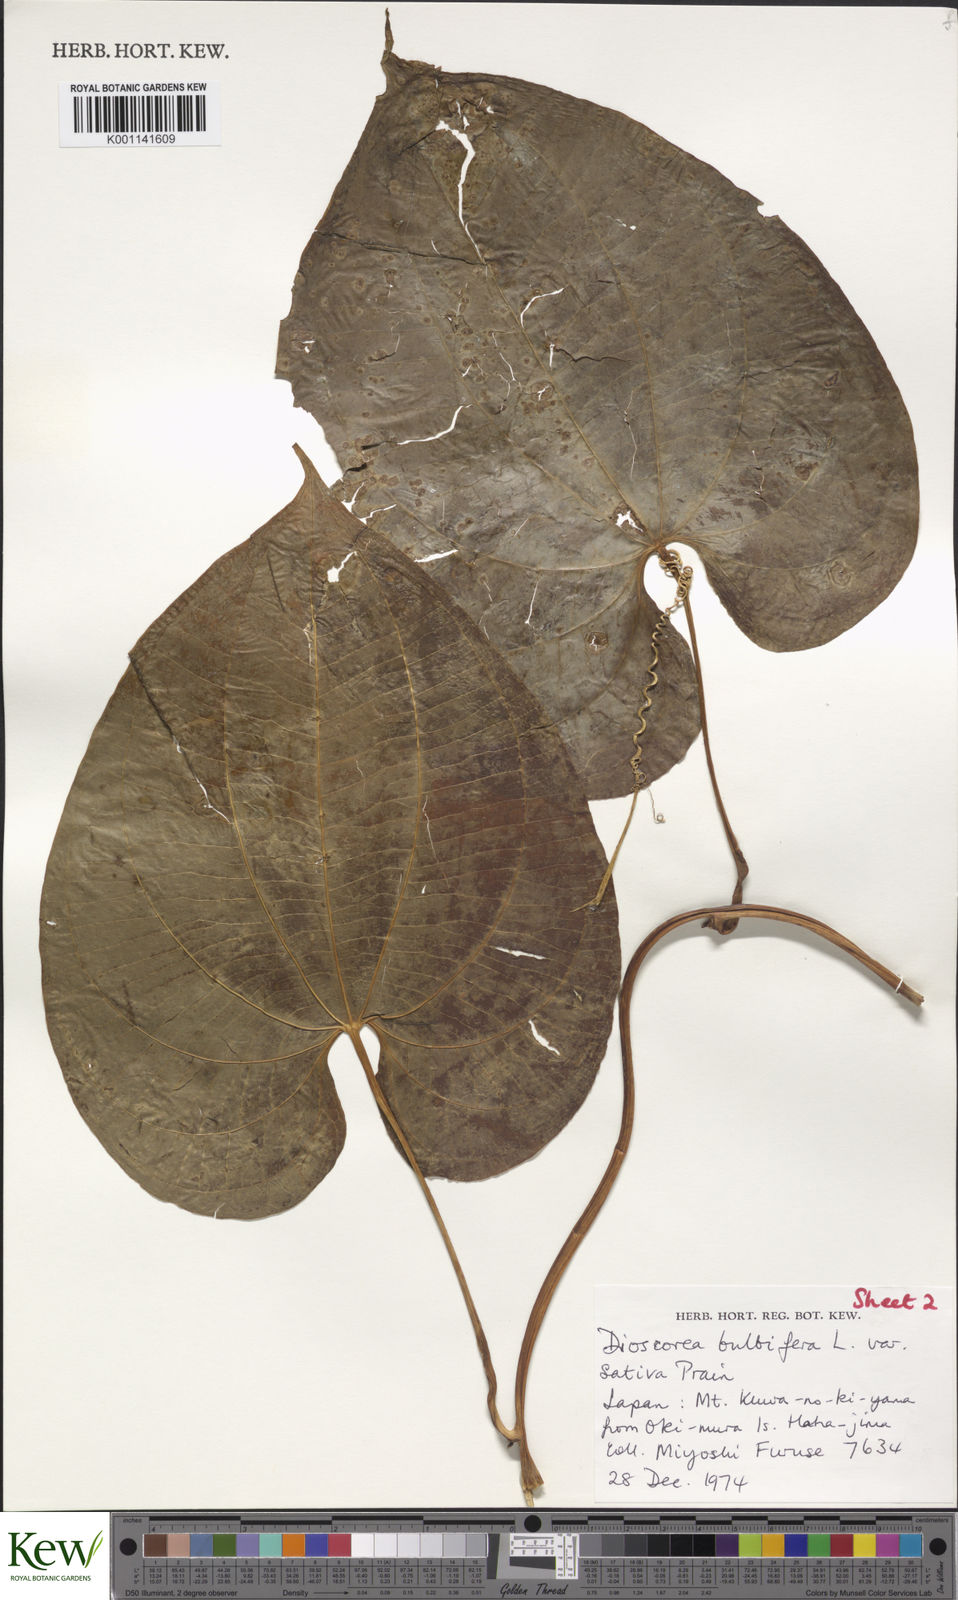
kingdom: Plantae
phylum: Tracheophyta
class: Liliopsida
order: Dioscoreales
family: Dioscoreaceae
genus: Dioscorea
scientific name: Dioscorea bulbifera
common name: Air yam
